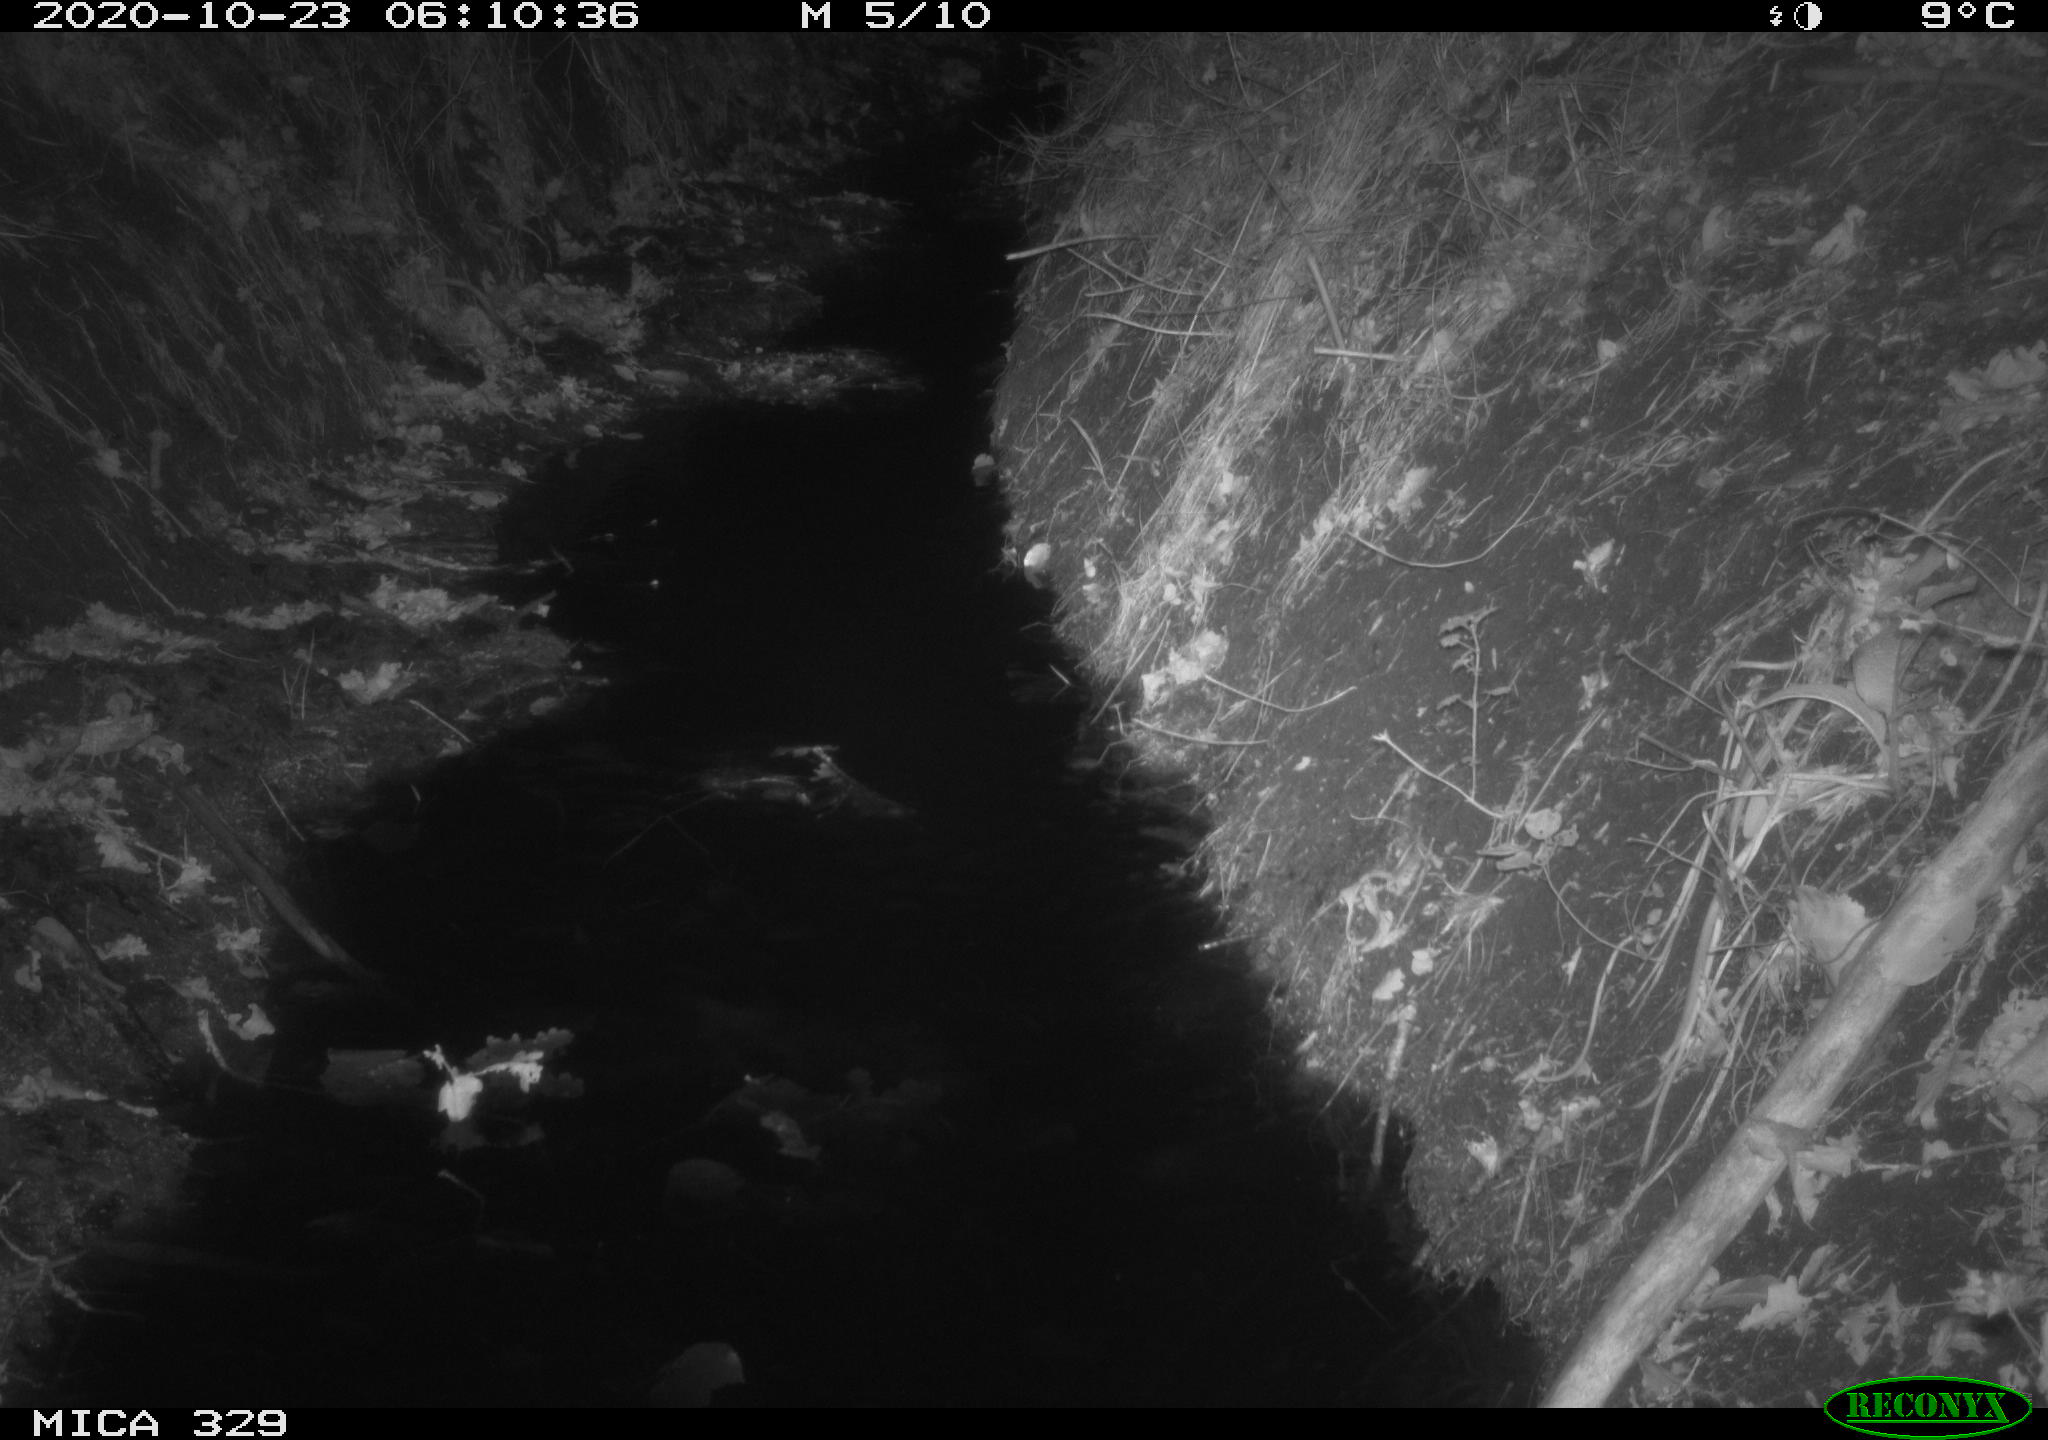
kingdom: Animalia
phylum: Chordata
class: Mammalia
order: Rodentia
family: Muridae
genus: Rattus
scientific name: Rattus norvegicus
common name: Brown rat
